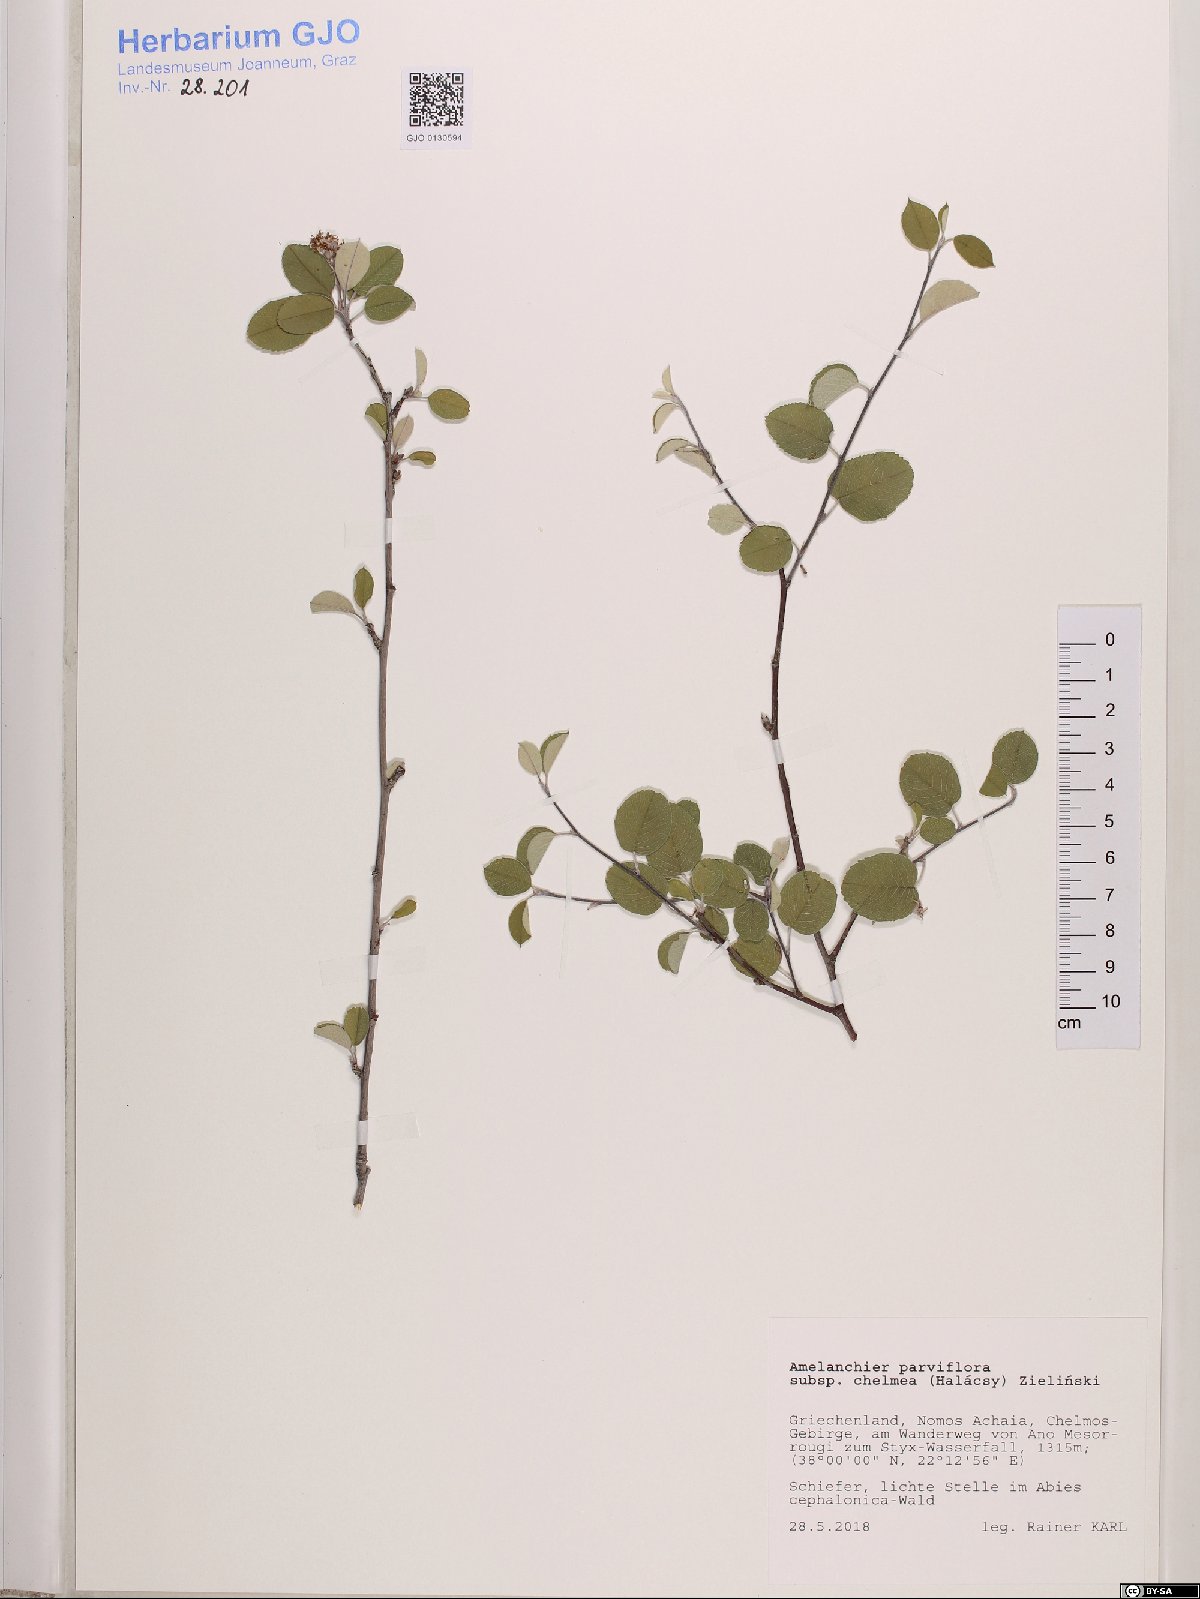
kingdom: Plantae
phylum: Tracheophyta
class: Magnoliopsida
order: Rosales
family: Rosaceae
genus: Amelanchier
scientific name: Amelanchier parviflora
